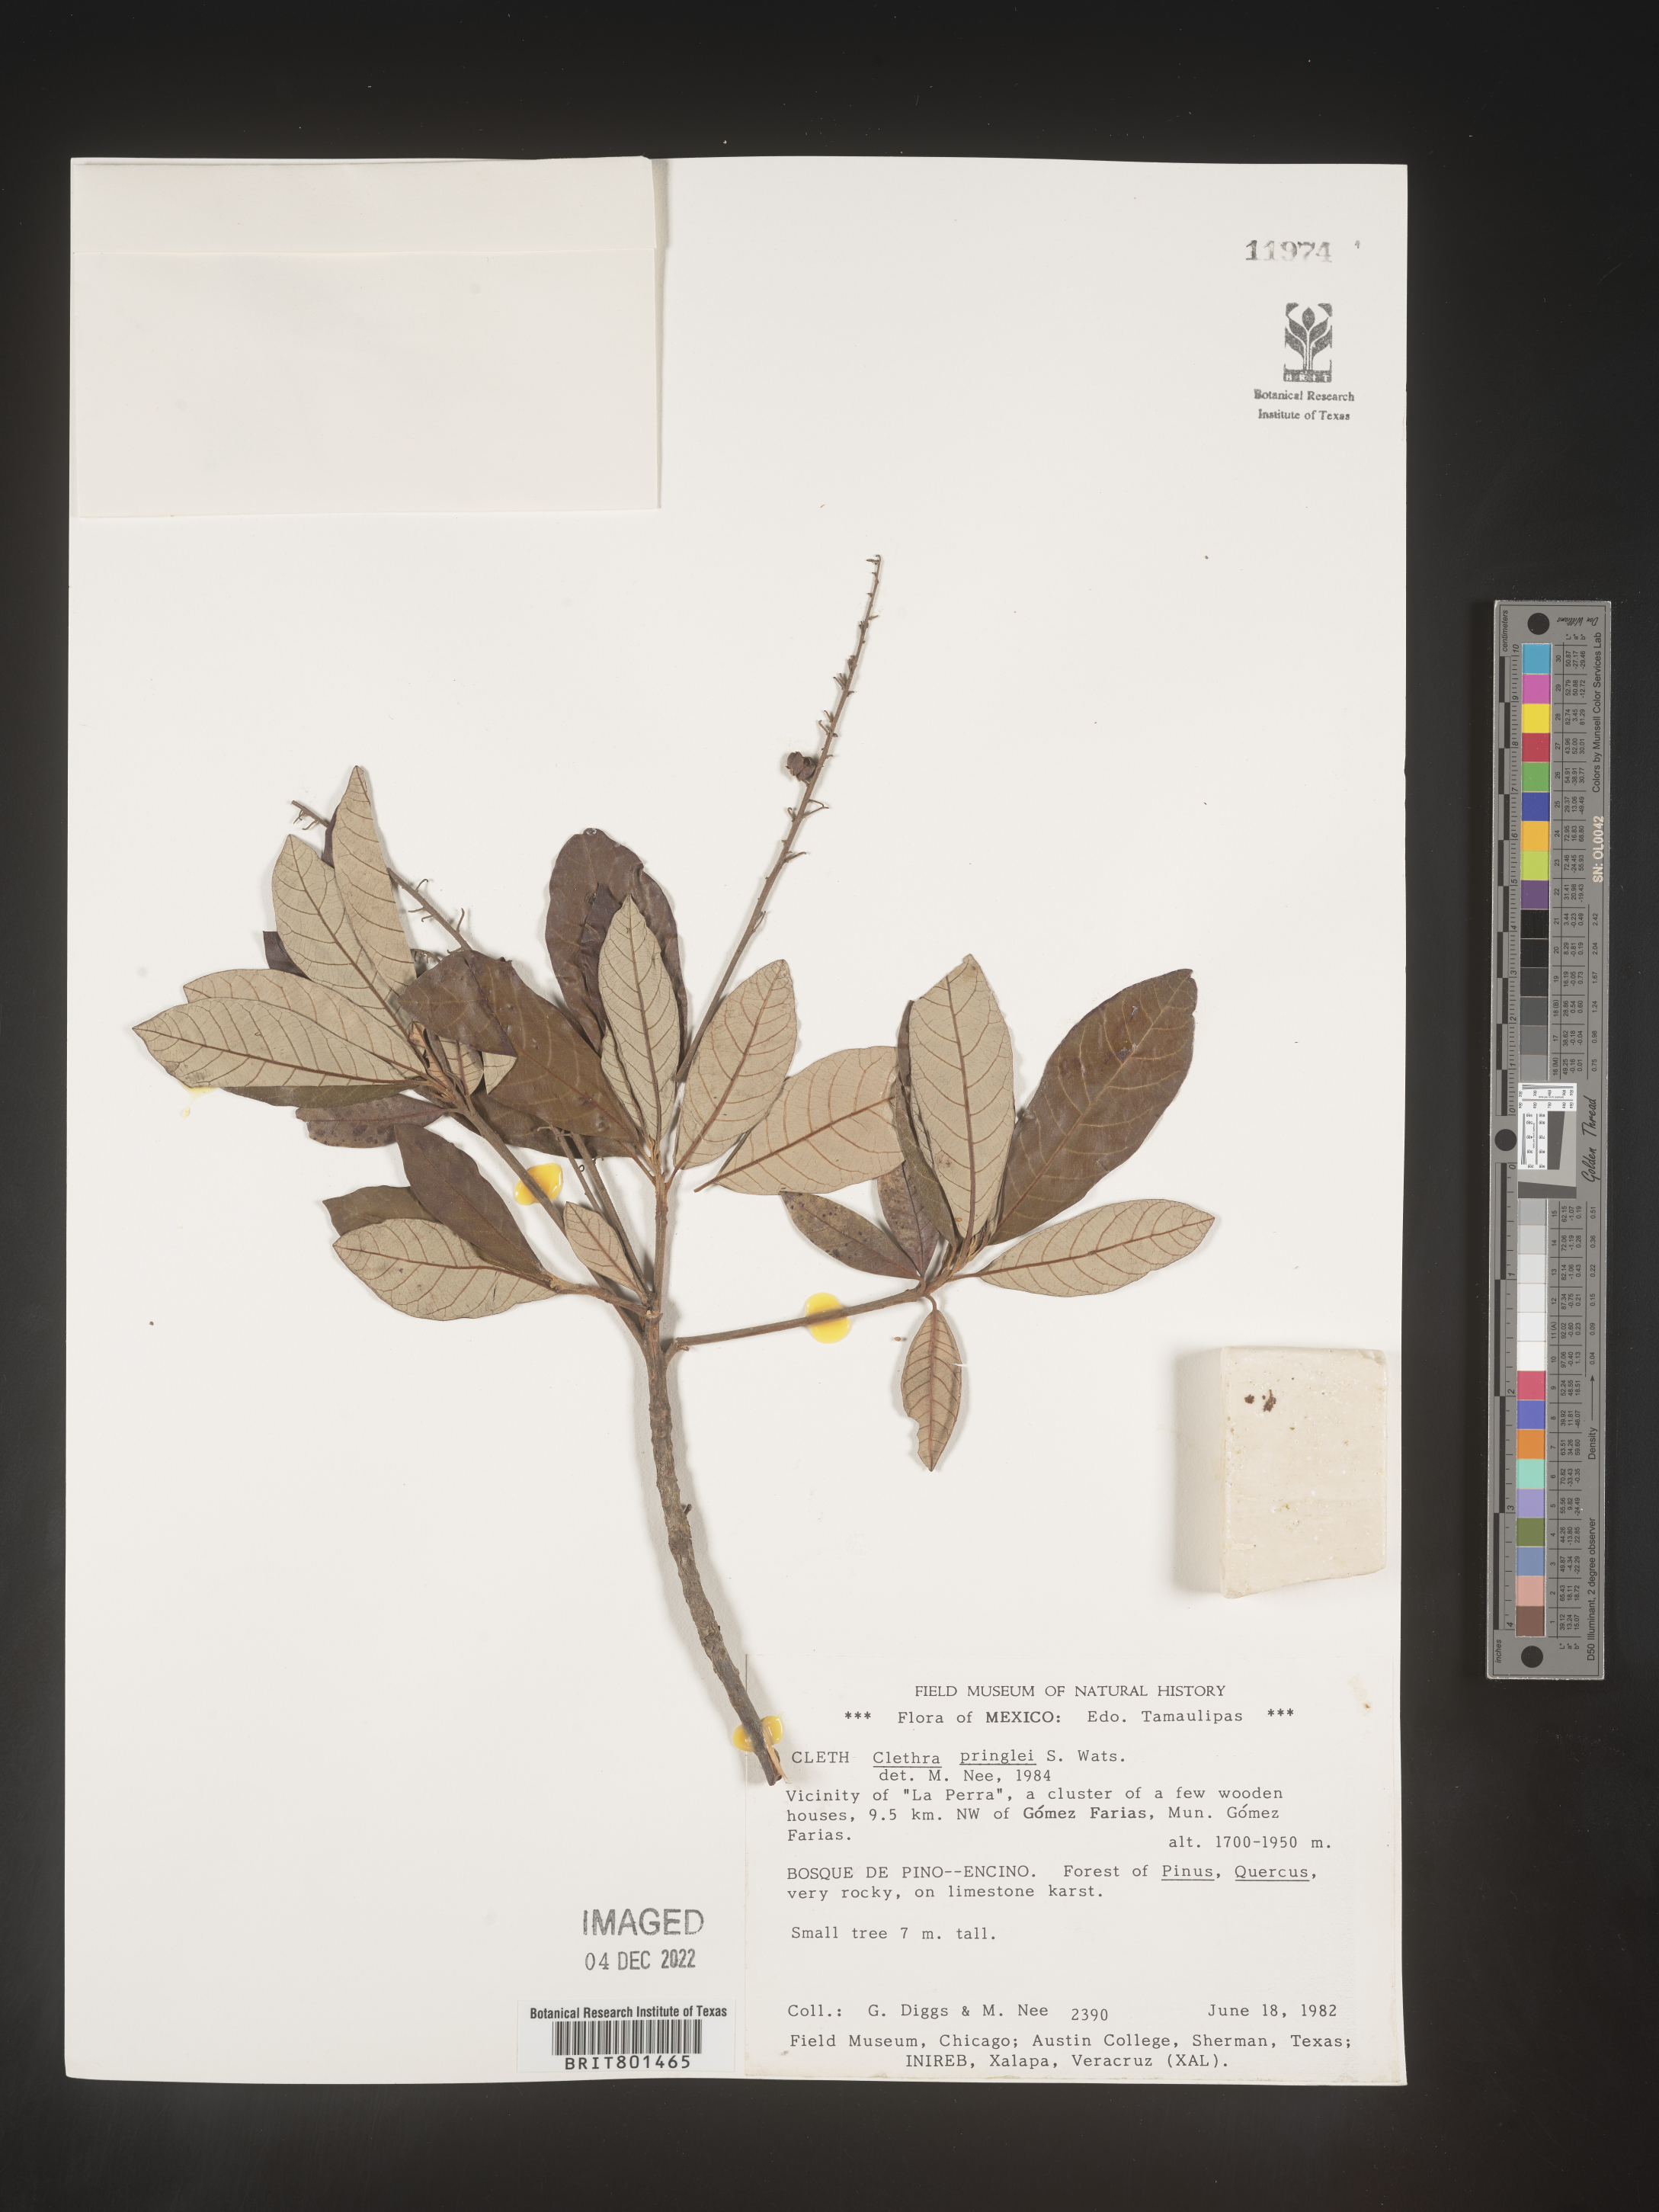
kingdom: Plantae
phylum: Tracheophyta
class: Magnoliopsida
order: Ericales
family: Clethraceae
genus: Clethra
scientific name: Clethra
